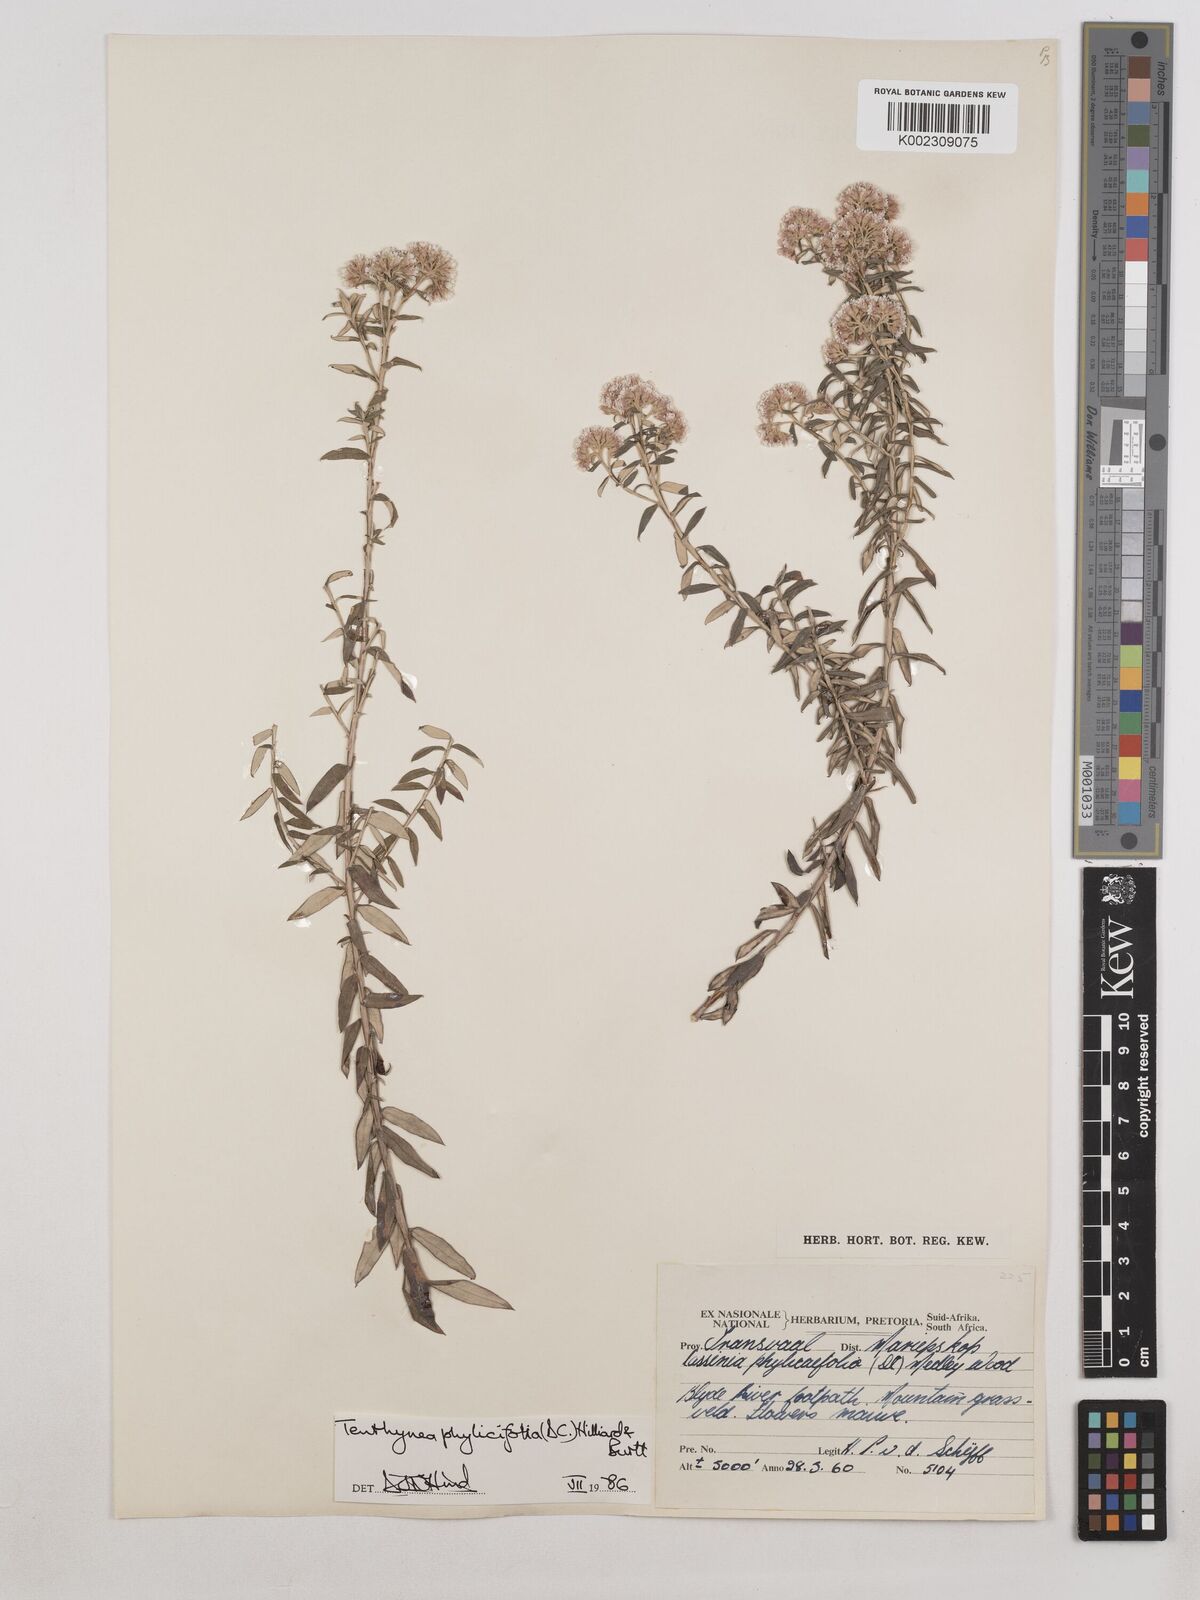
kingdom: Plantae
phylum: Tracheophyta
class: Magnoliopsida
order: Asterales
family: Asteraceae
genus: Tenrhynea
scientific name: Tenrhynea phylicifolia
